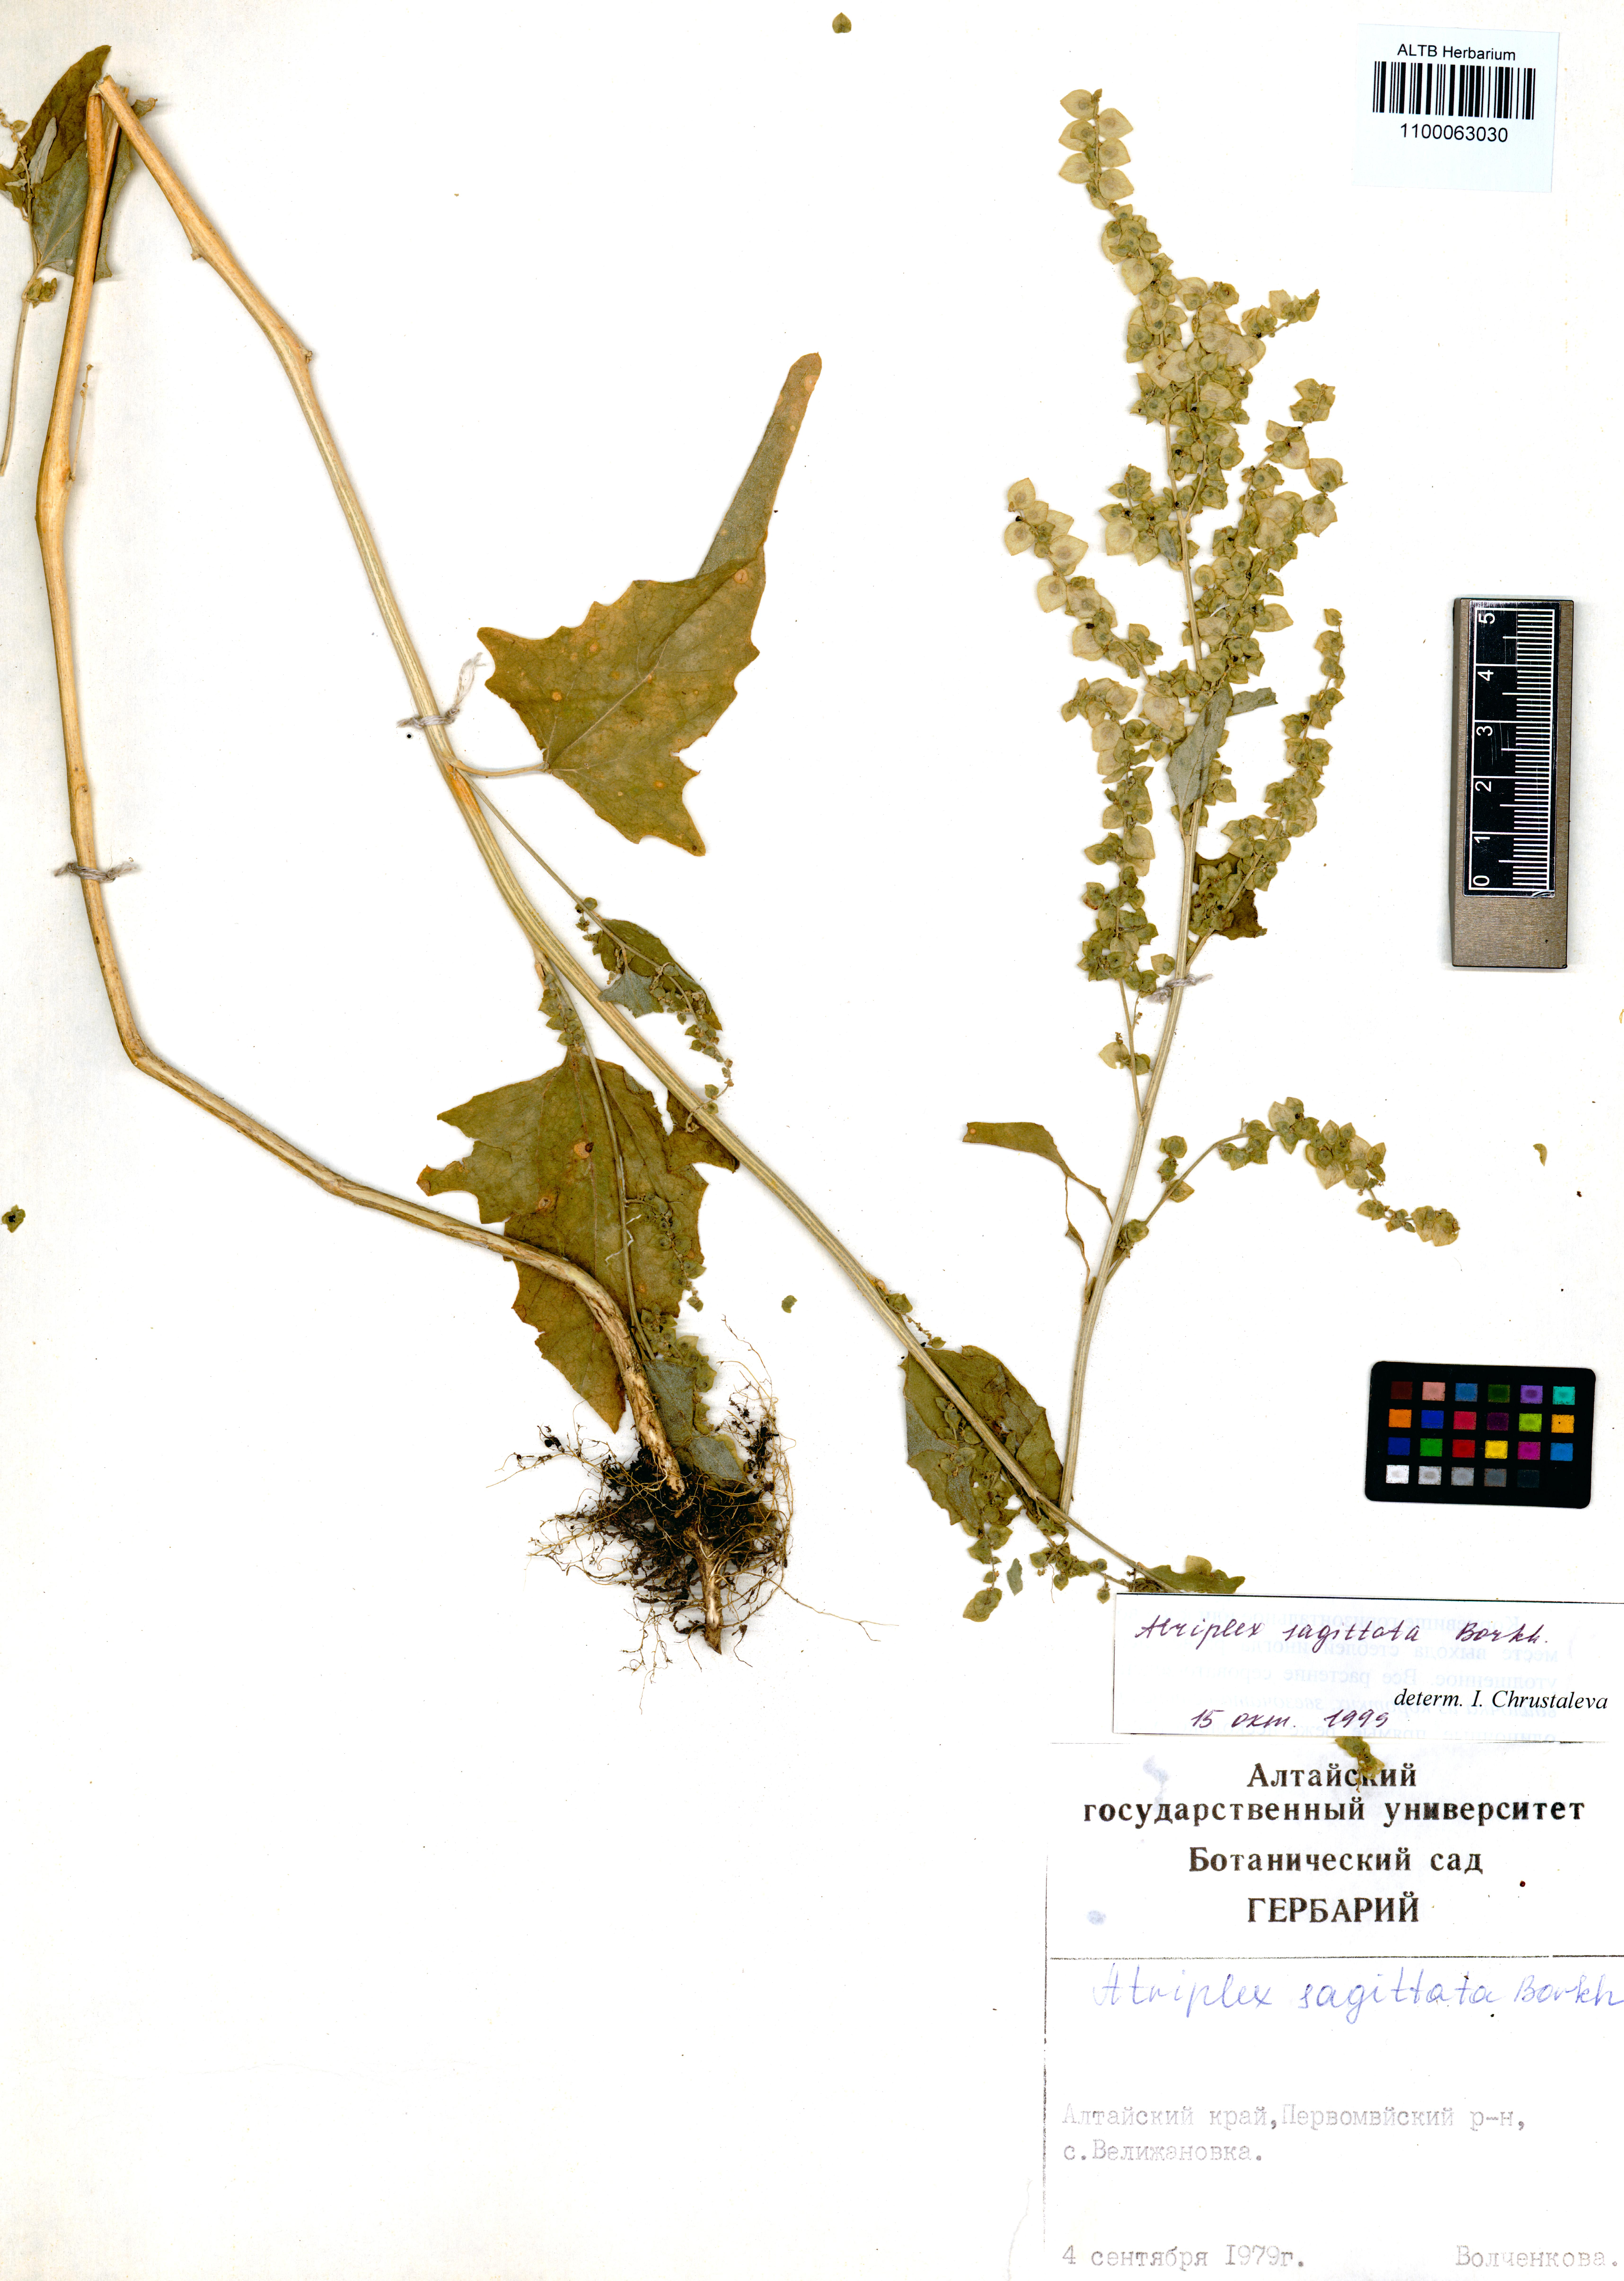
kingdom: Plantae
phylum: Tracheophyta
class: Magnoliopsida
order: Caryophyllales
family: Amaranthaceae
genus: Atriplex
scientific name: Atriplex sagittata
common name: Purple orache
